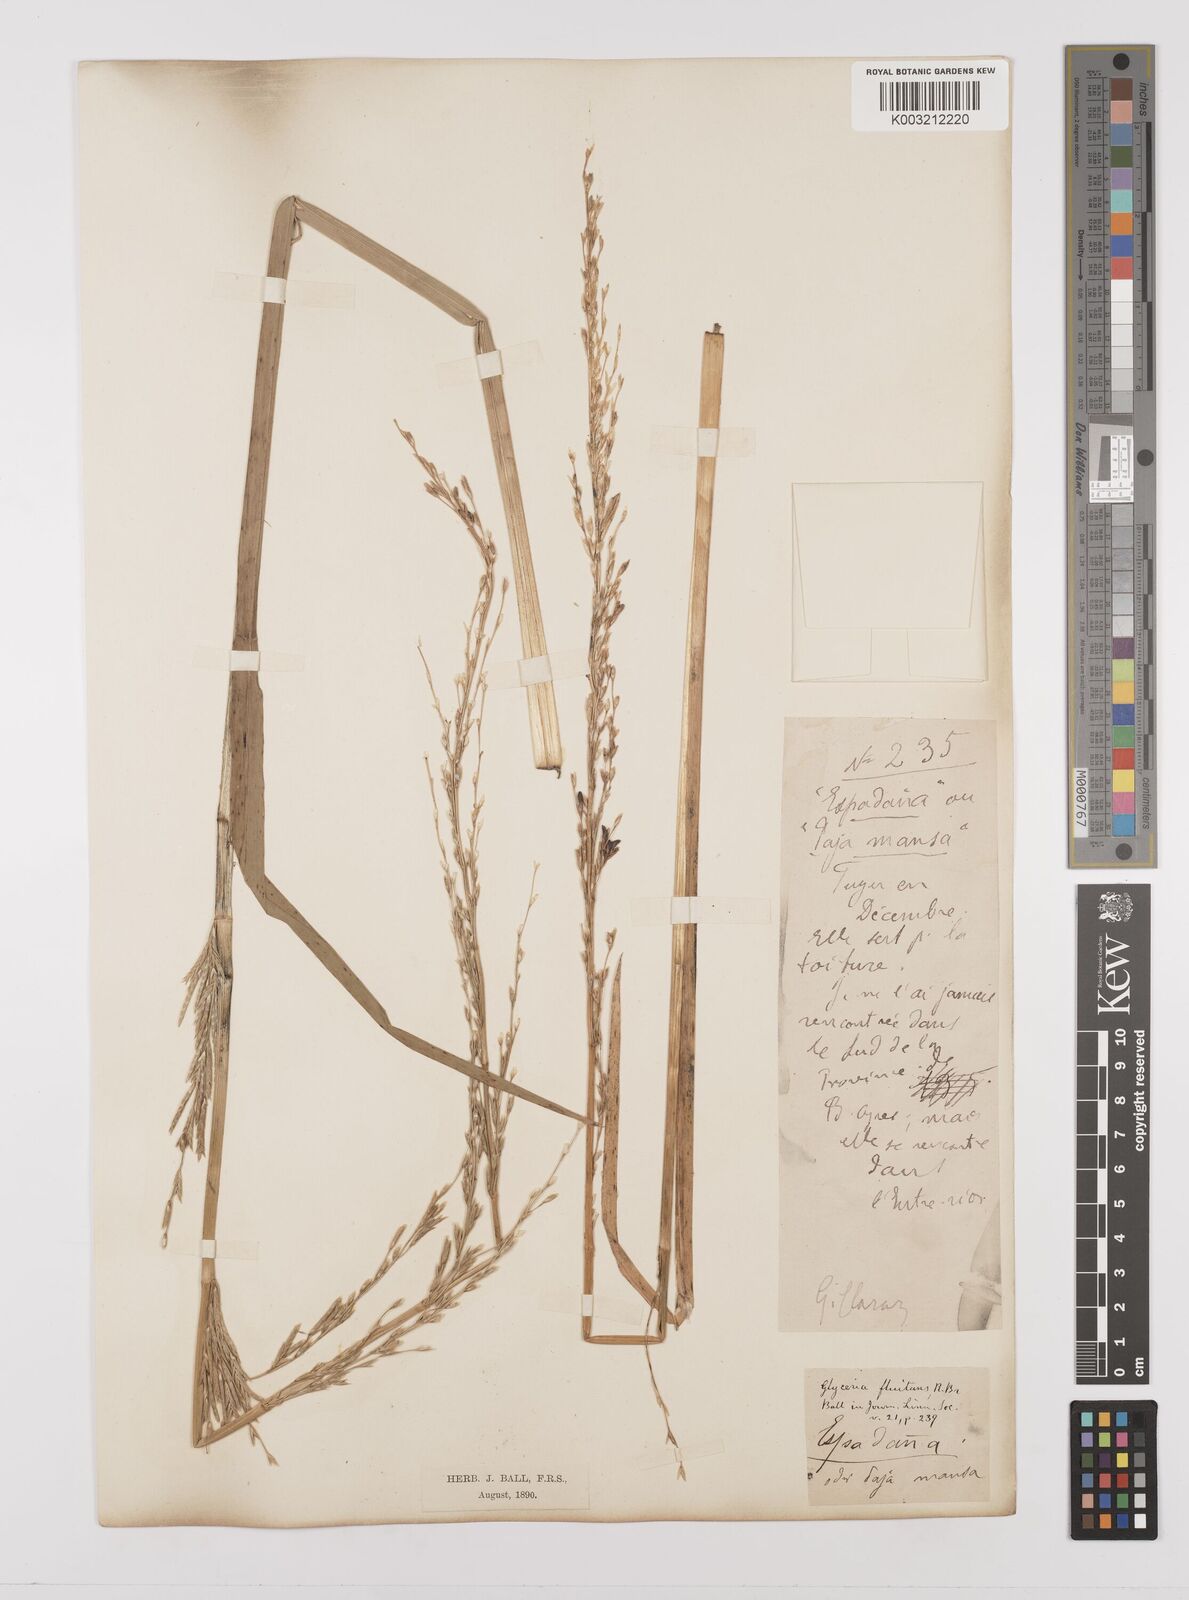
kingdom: Plantae
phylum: Tracheophyta
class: Liliopsida
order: Poales
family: Poaceae
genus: Glyceria
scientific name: Glyceria multiflora
